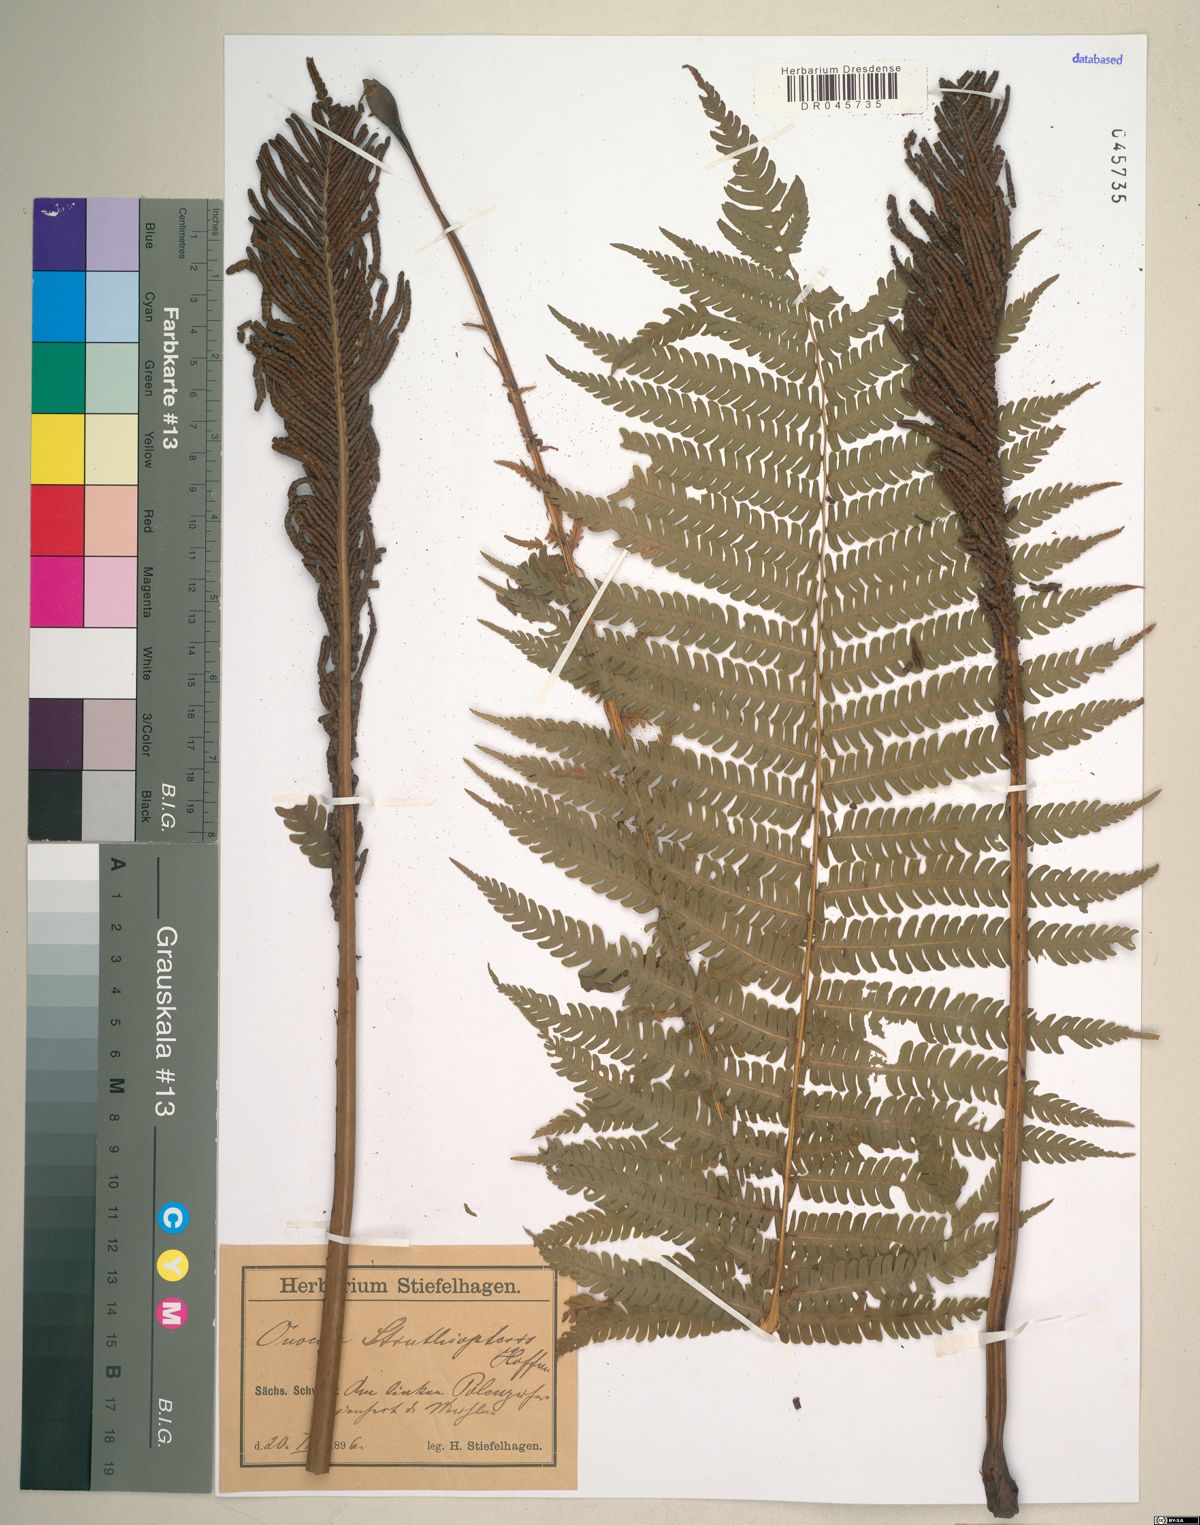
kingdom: Plantae
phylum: Tracheophyta
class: Polypodiopsida
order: Polypodiales
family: Onocleaceae
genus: Matteuccia
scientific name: Matteuccia struthiopteris
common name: Ostrich fern
